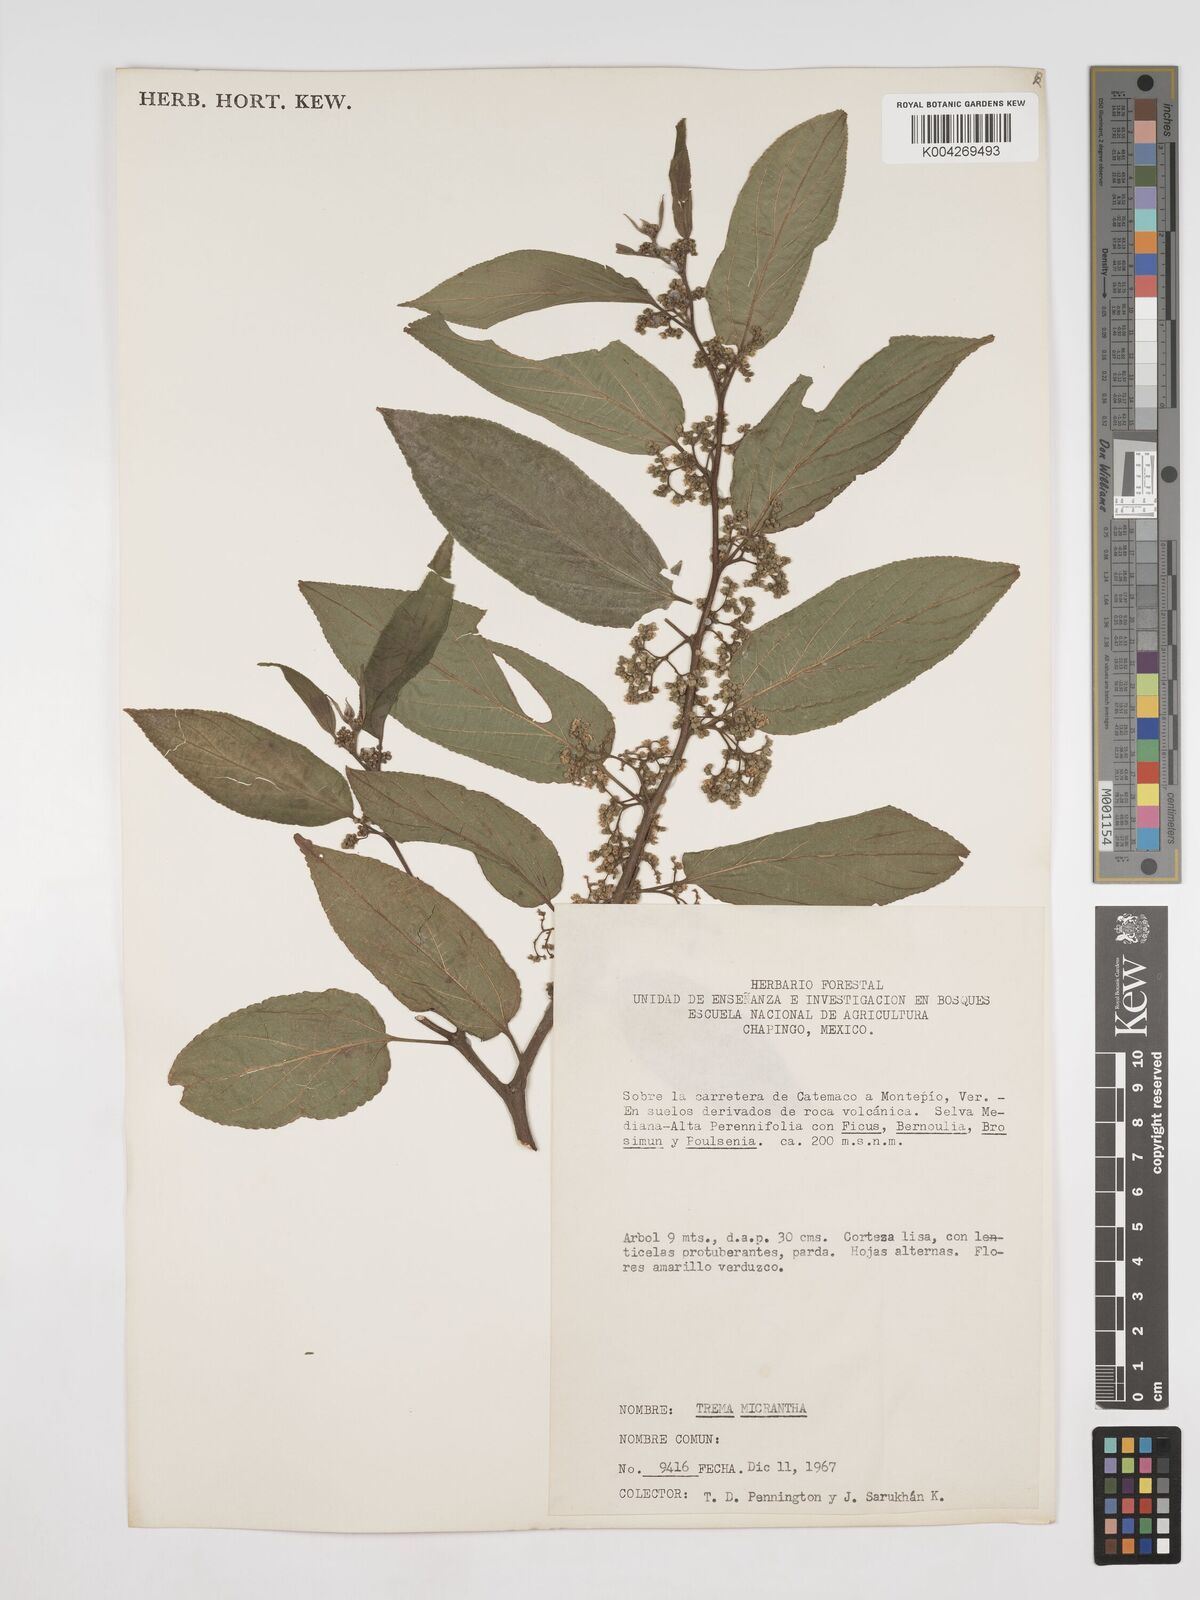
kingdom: Plantae
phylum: Tracheophyta
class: Magnoliopsida
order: Rosales
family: Cannabaceae
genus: Trema
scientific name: Trema micranthum
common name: Jamaican nettletree
